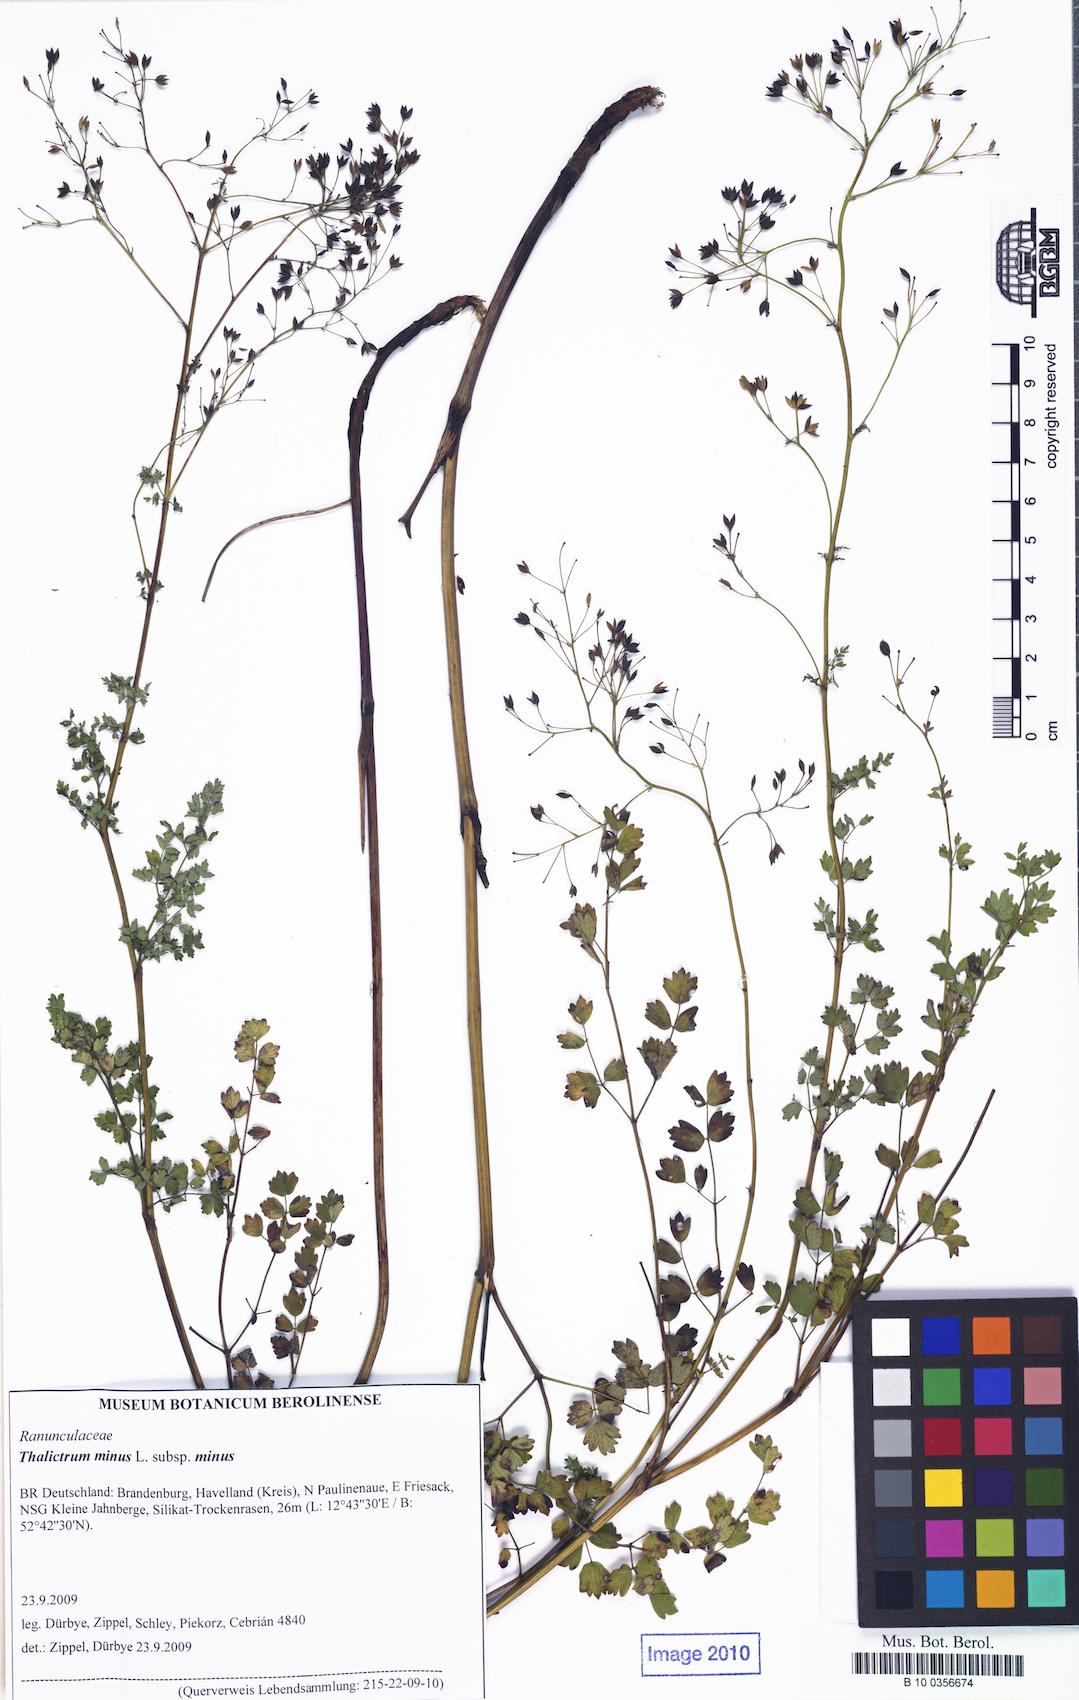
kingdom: Plantae
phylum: Tracheophyta
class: Magnoliopsida
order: Ranunculales
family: Ranunculaceae
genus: Thalictrum
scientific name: Thalictrum minus
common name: Lesser meadow-rue
